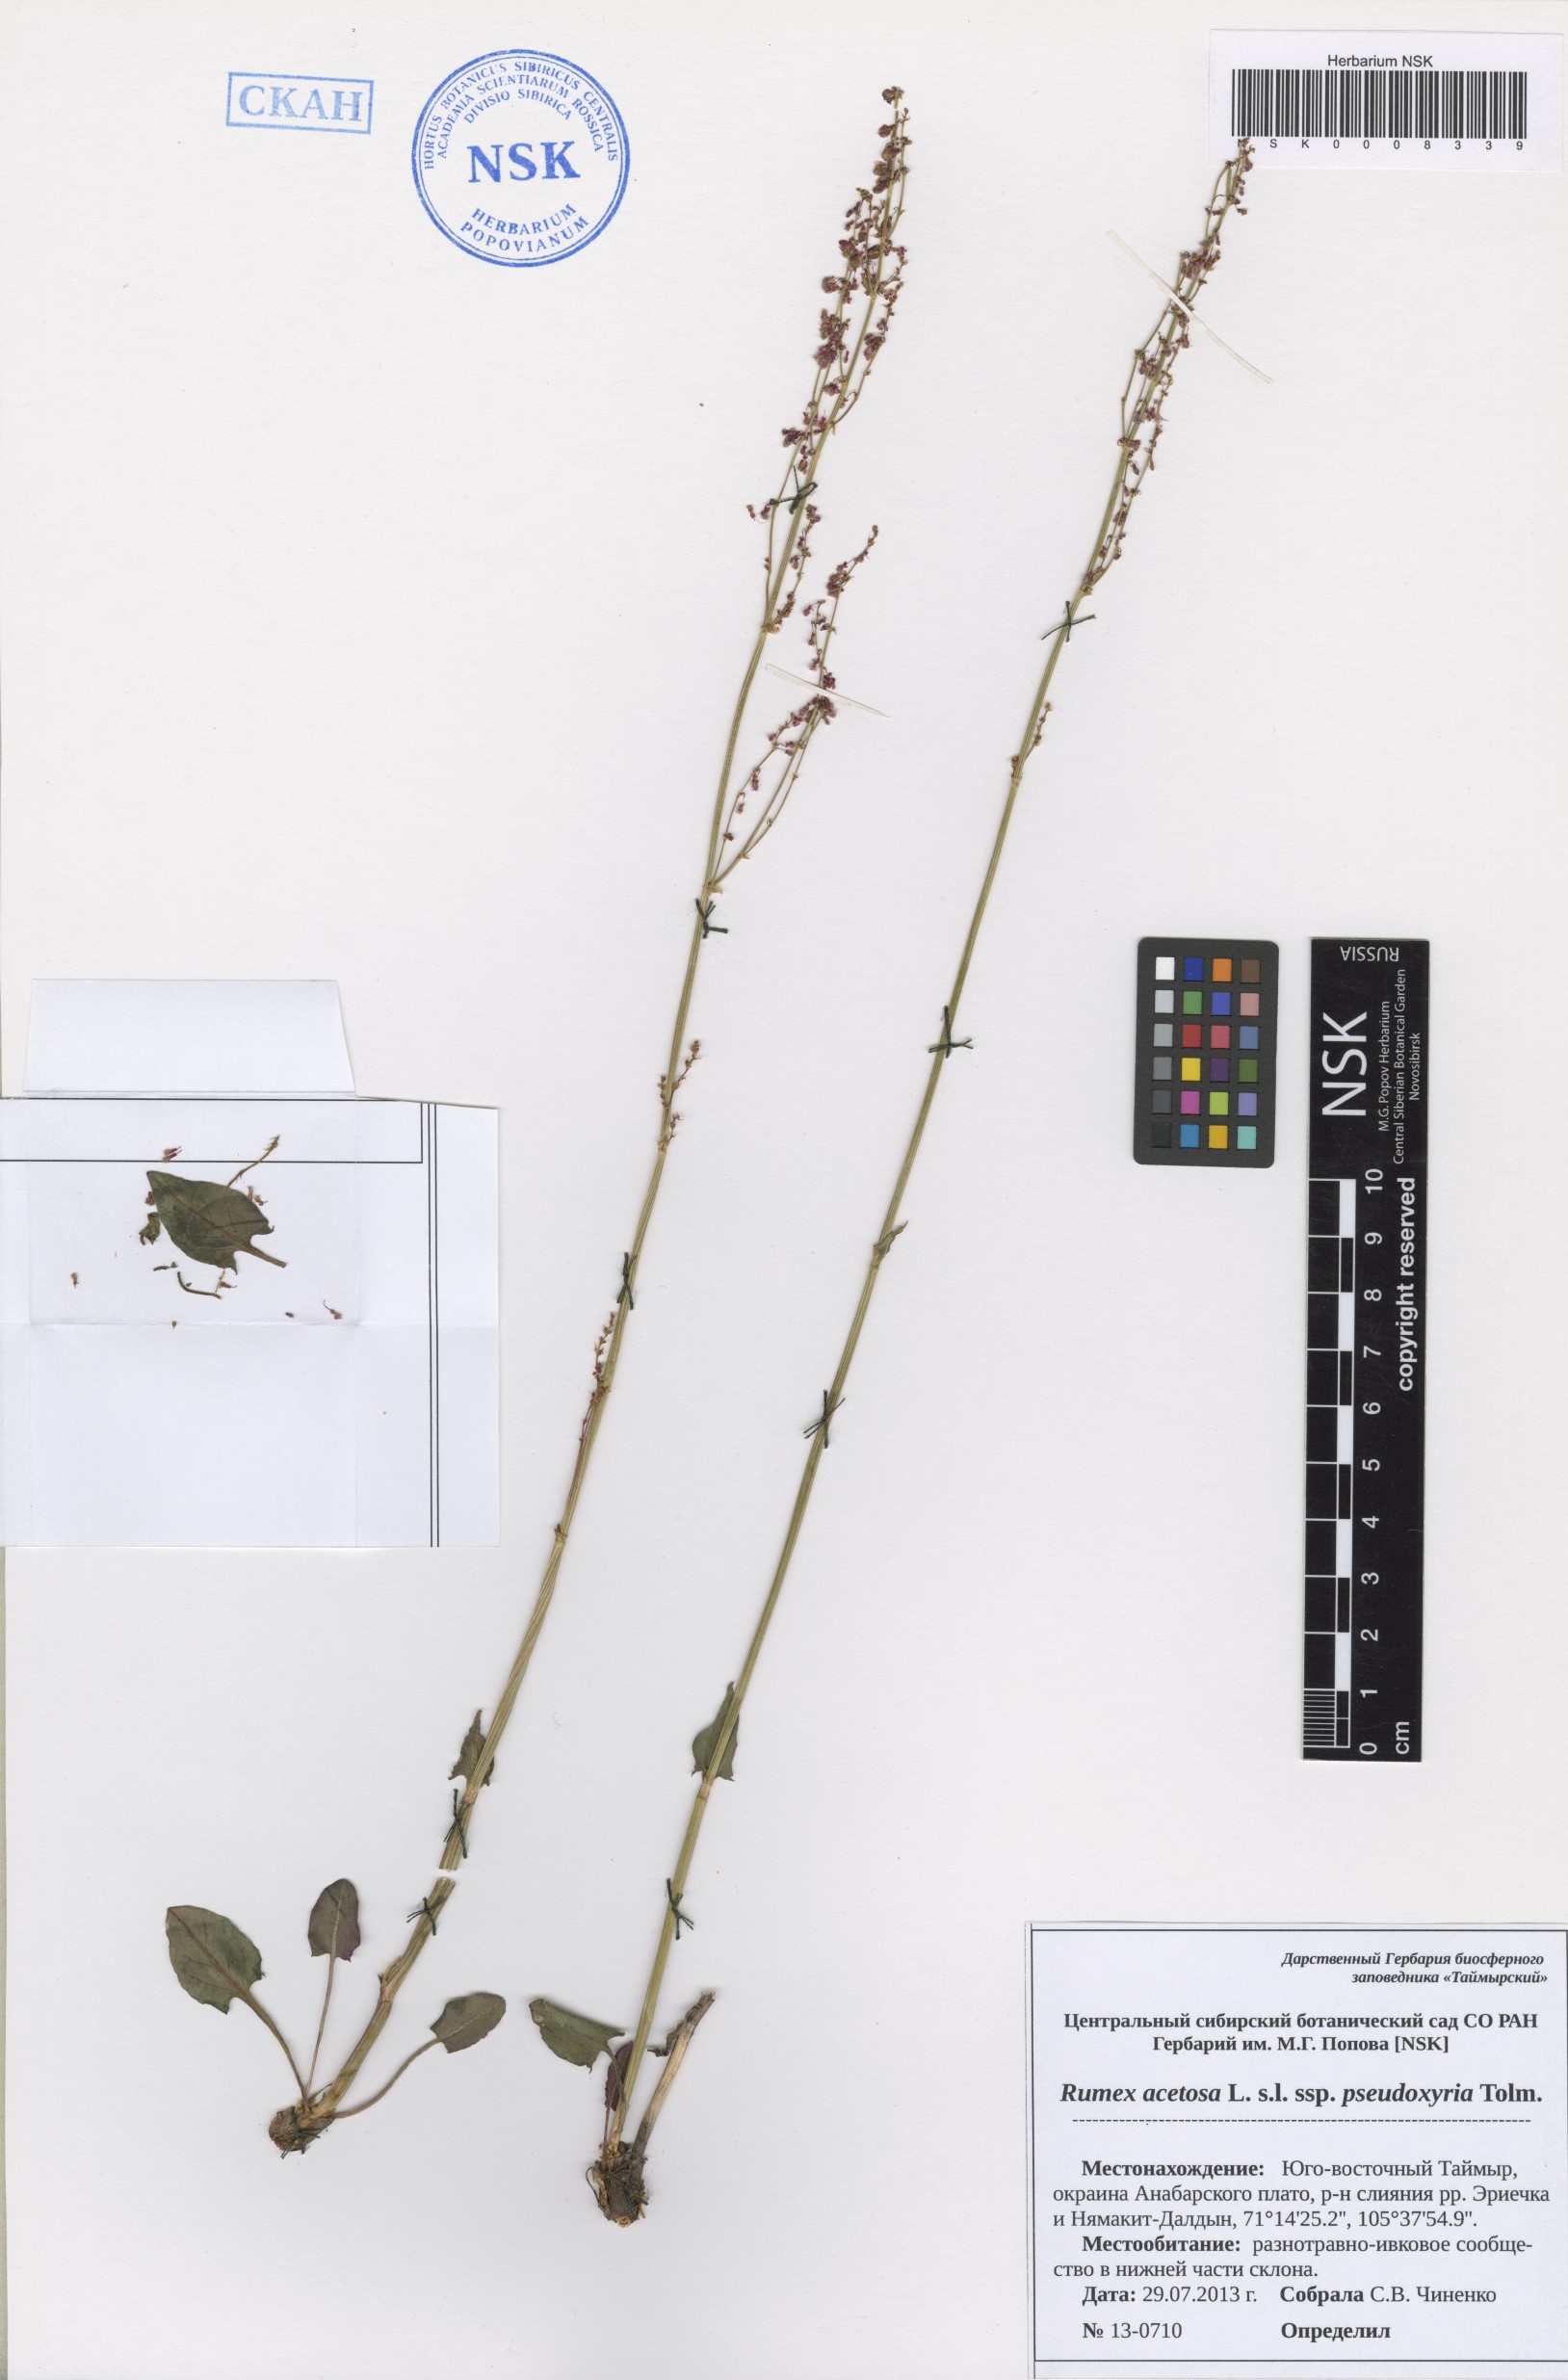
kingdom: Plantae
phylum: Tracheophyta
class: Magnoliopsida
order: Caryophyllales
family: Polygonaceae
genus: Rumex
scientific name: Rumex pseudoxyria
